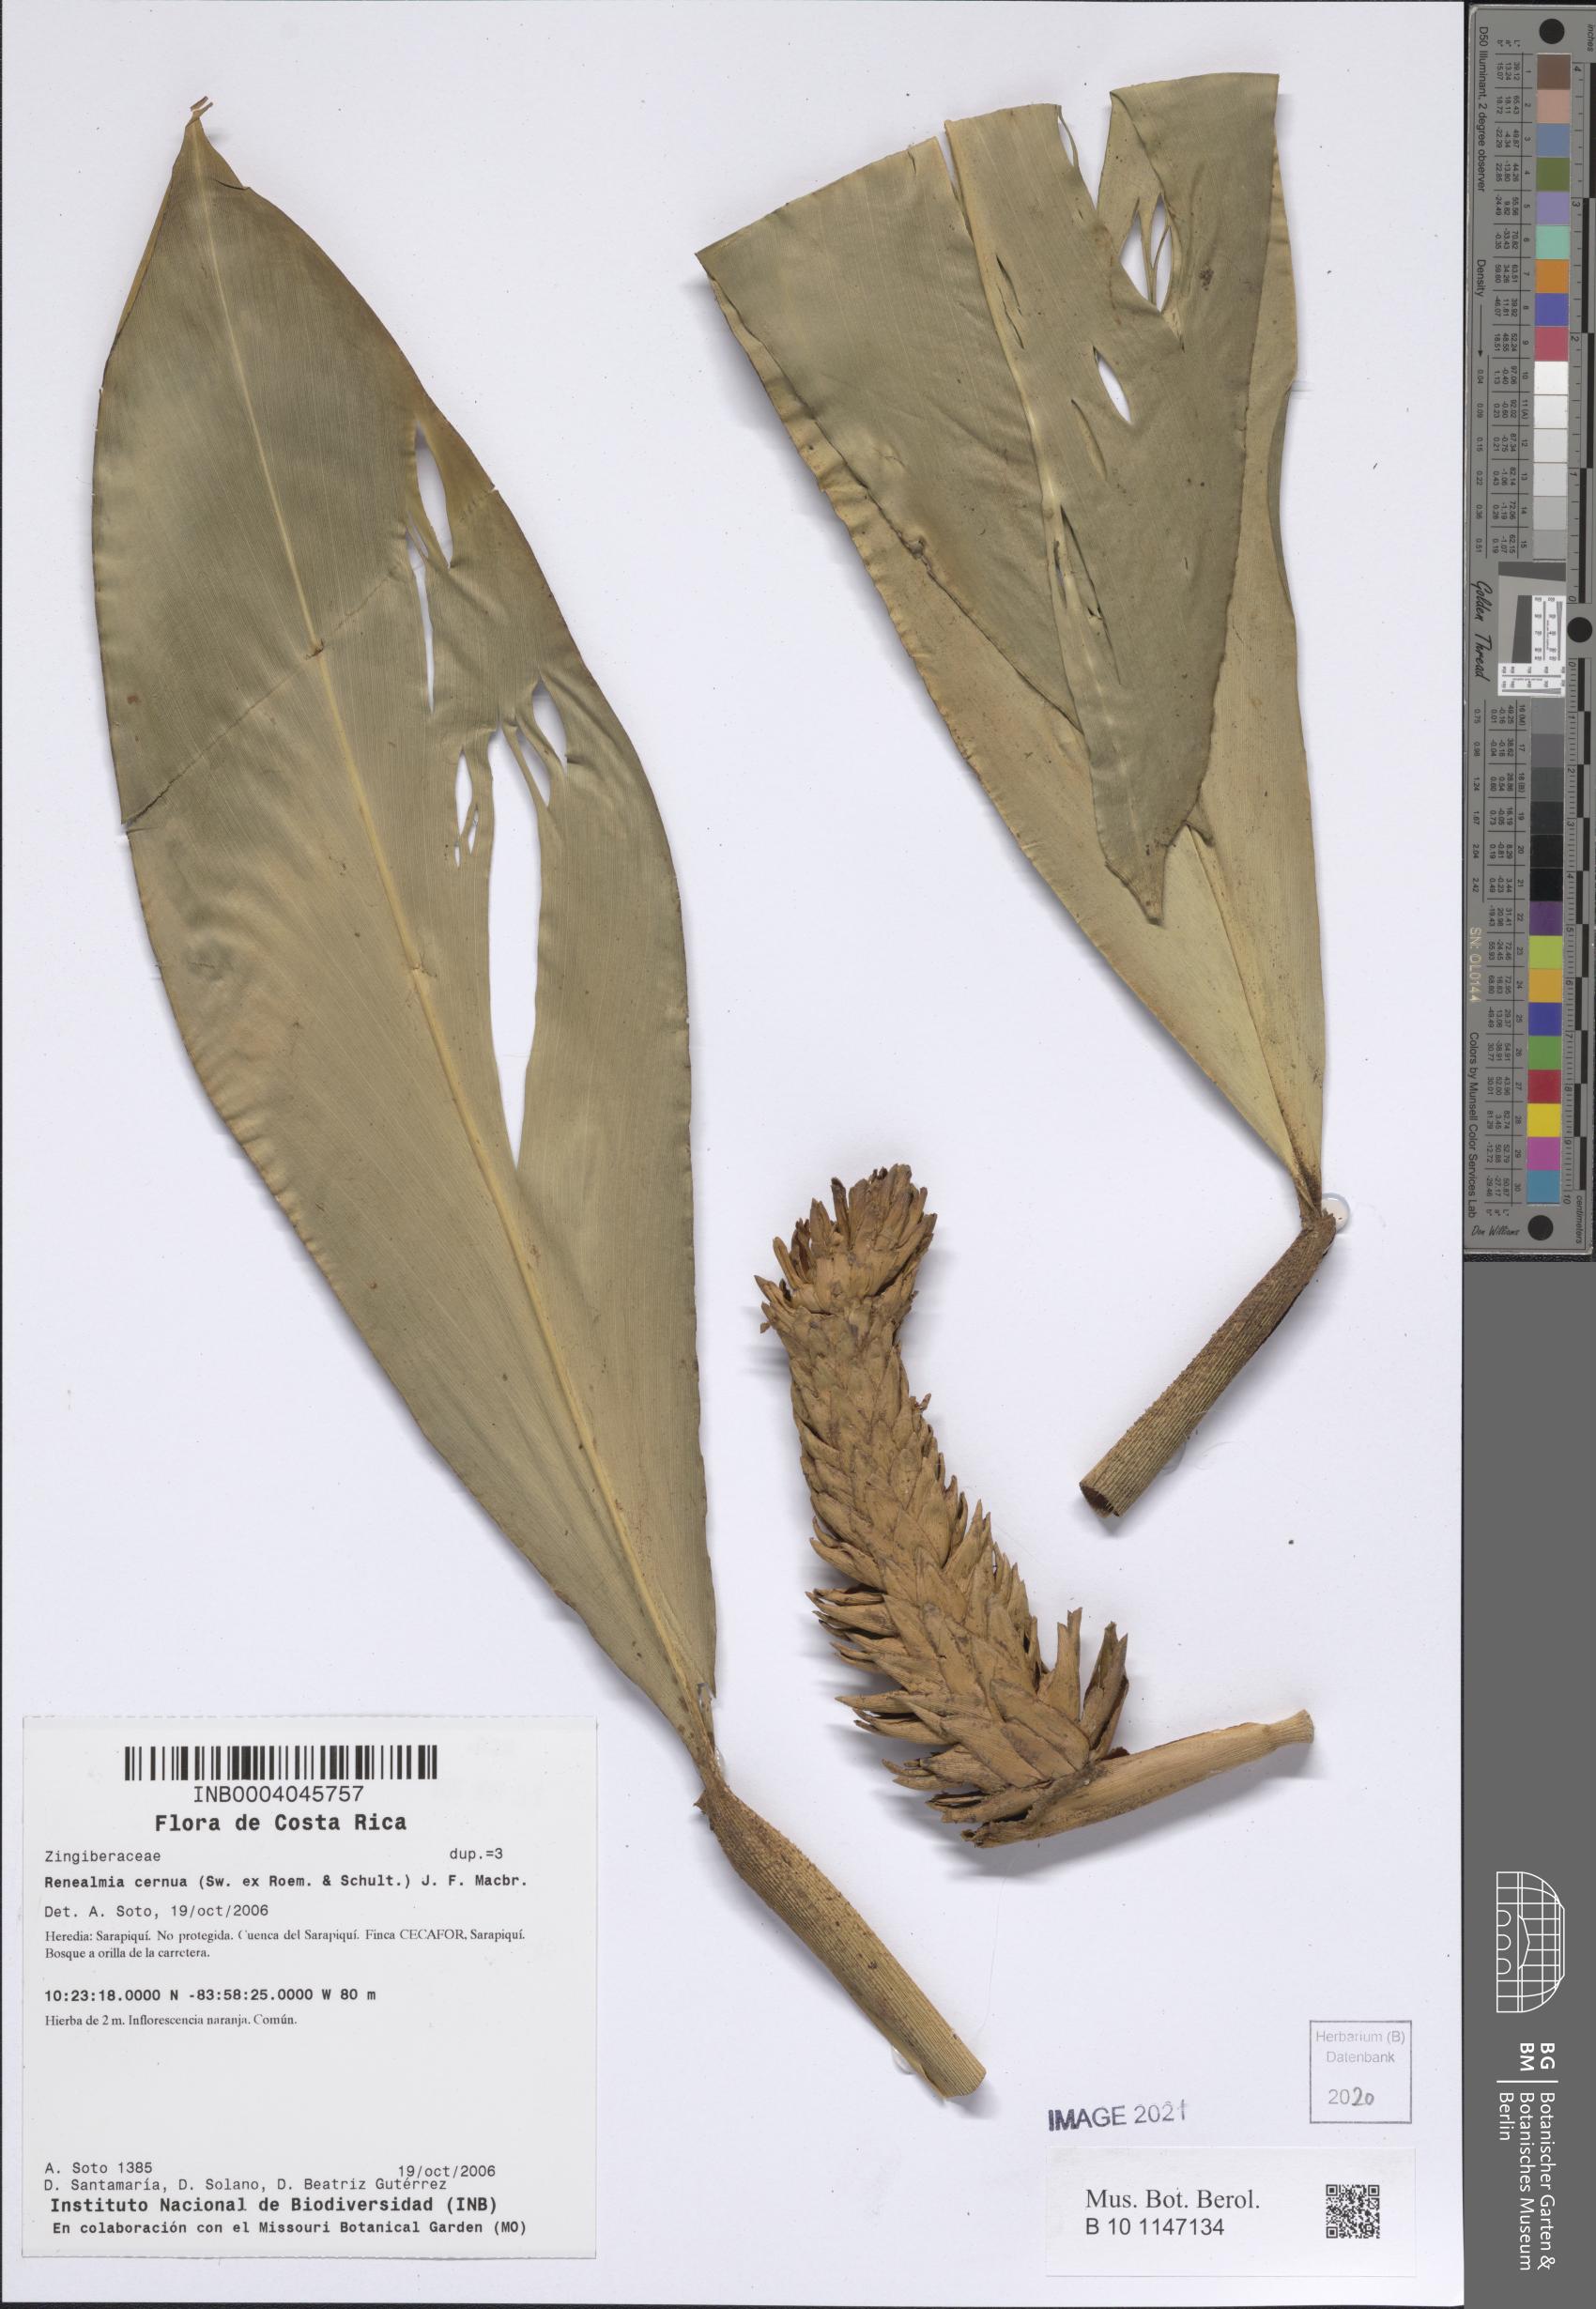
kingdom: Plantae
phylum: Tracheophyta
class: Liliopsida
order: Zingiberales
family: Zingiberaceae
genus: Renealmia
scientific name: Renealmia cernua
